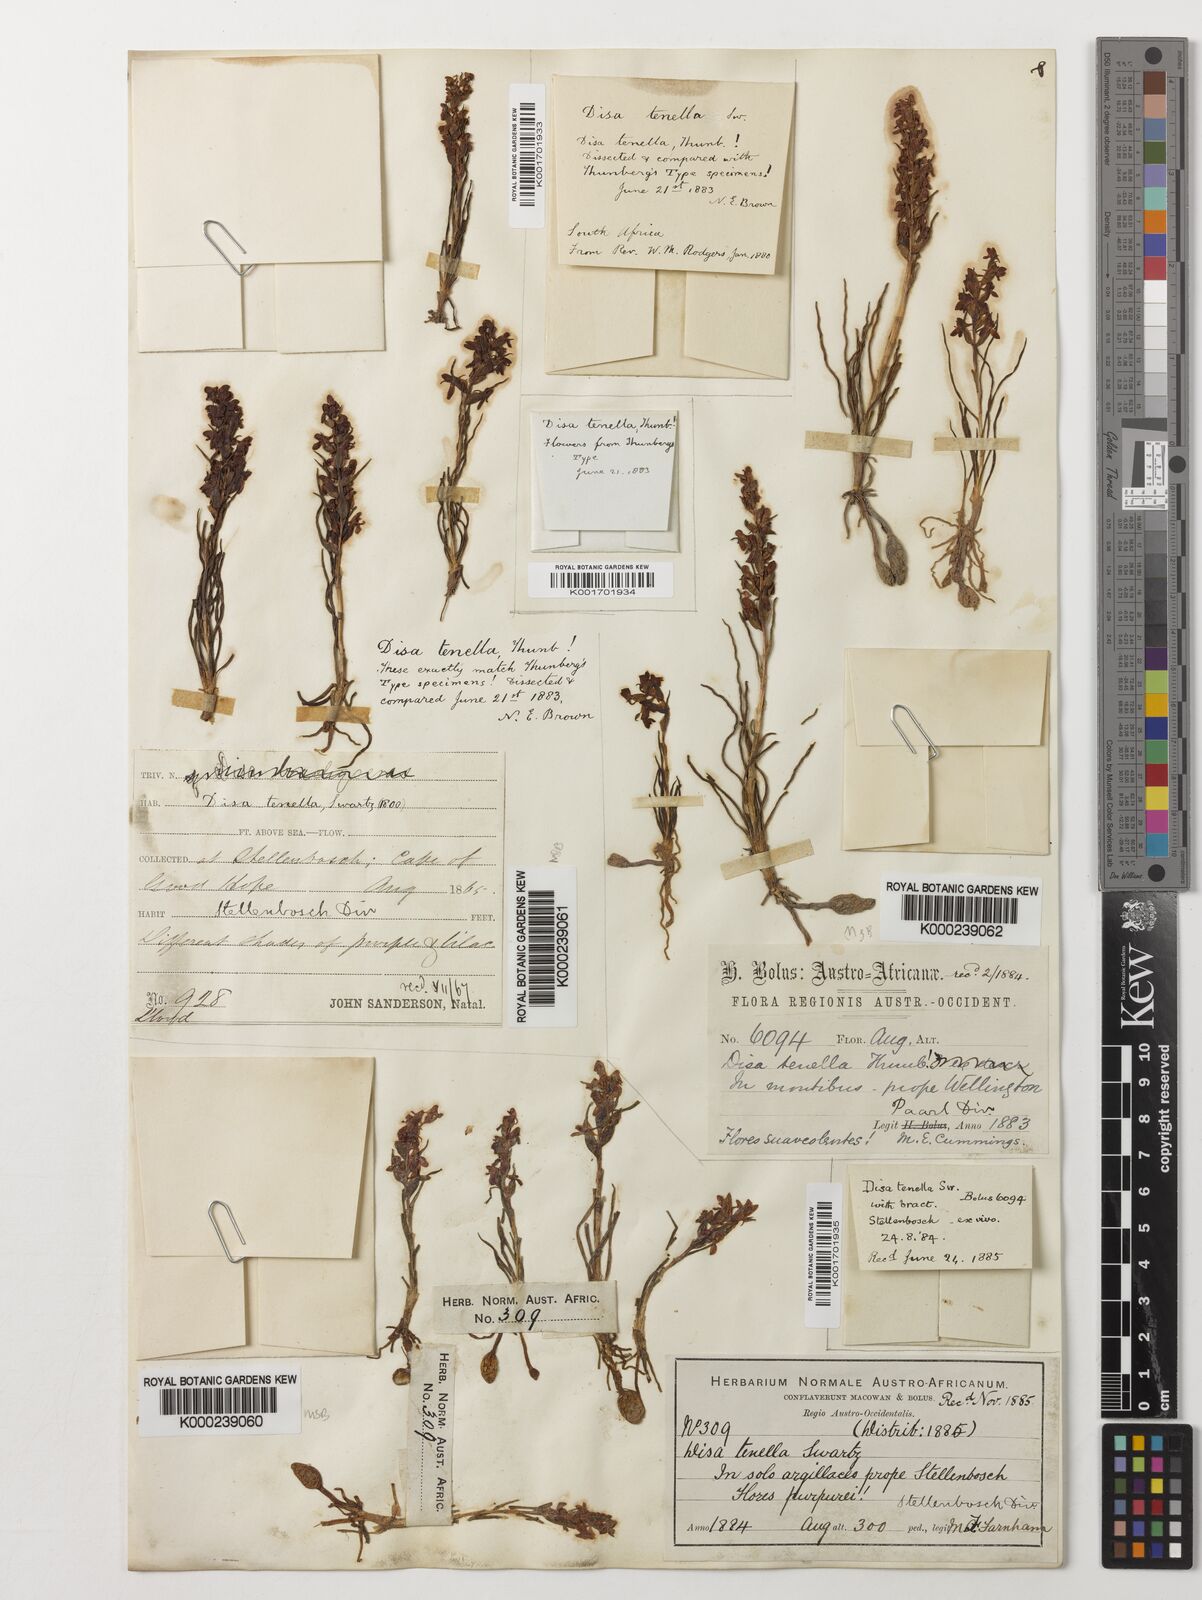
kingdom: Plantae
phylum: Tracheophyta
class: Liliopsida
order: Asparagales
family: Orchidaceae
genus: Disa
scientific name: Disa tenella
